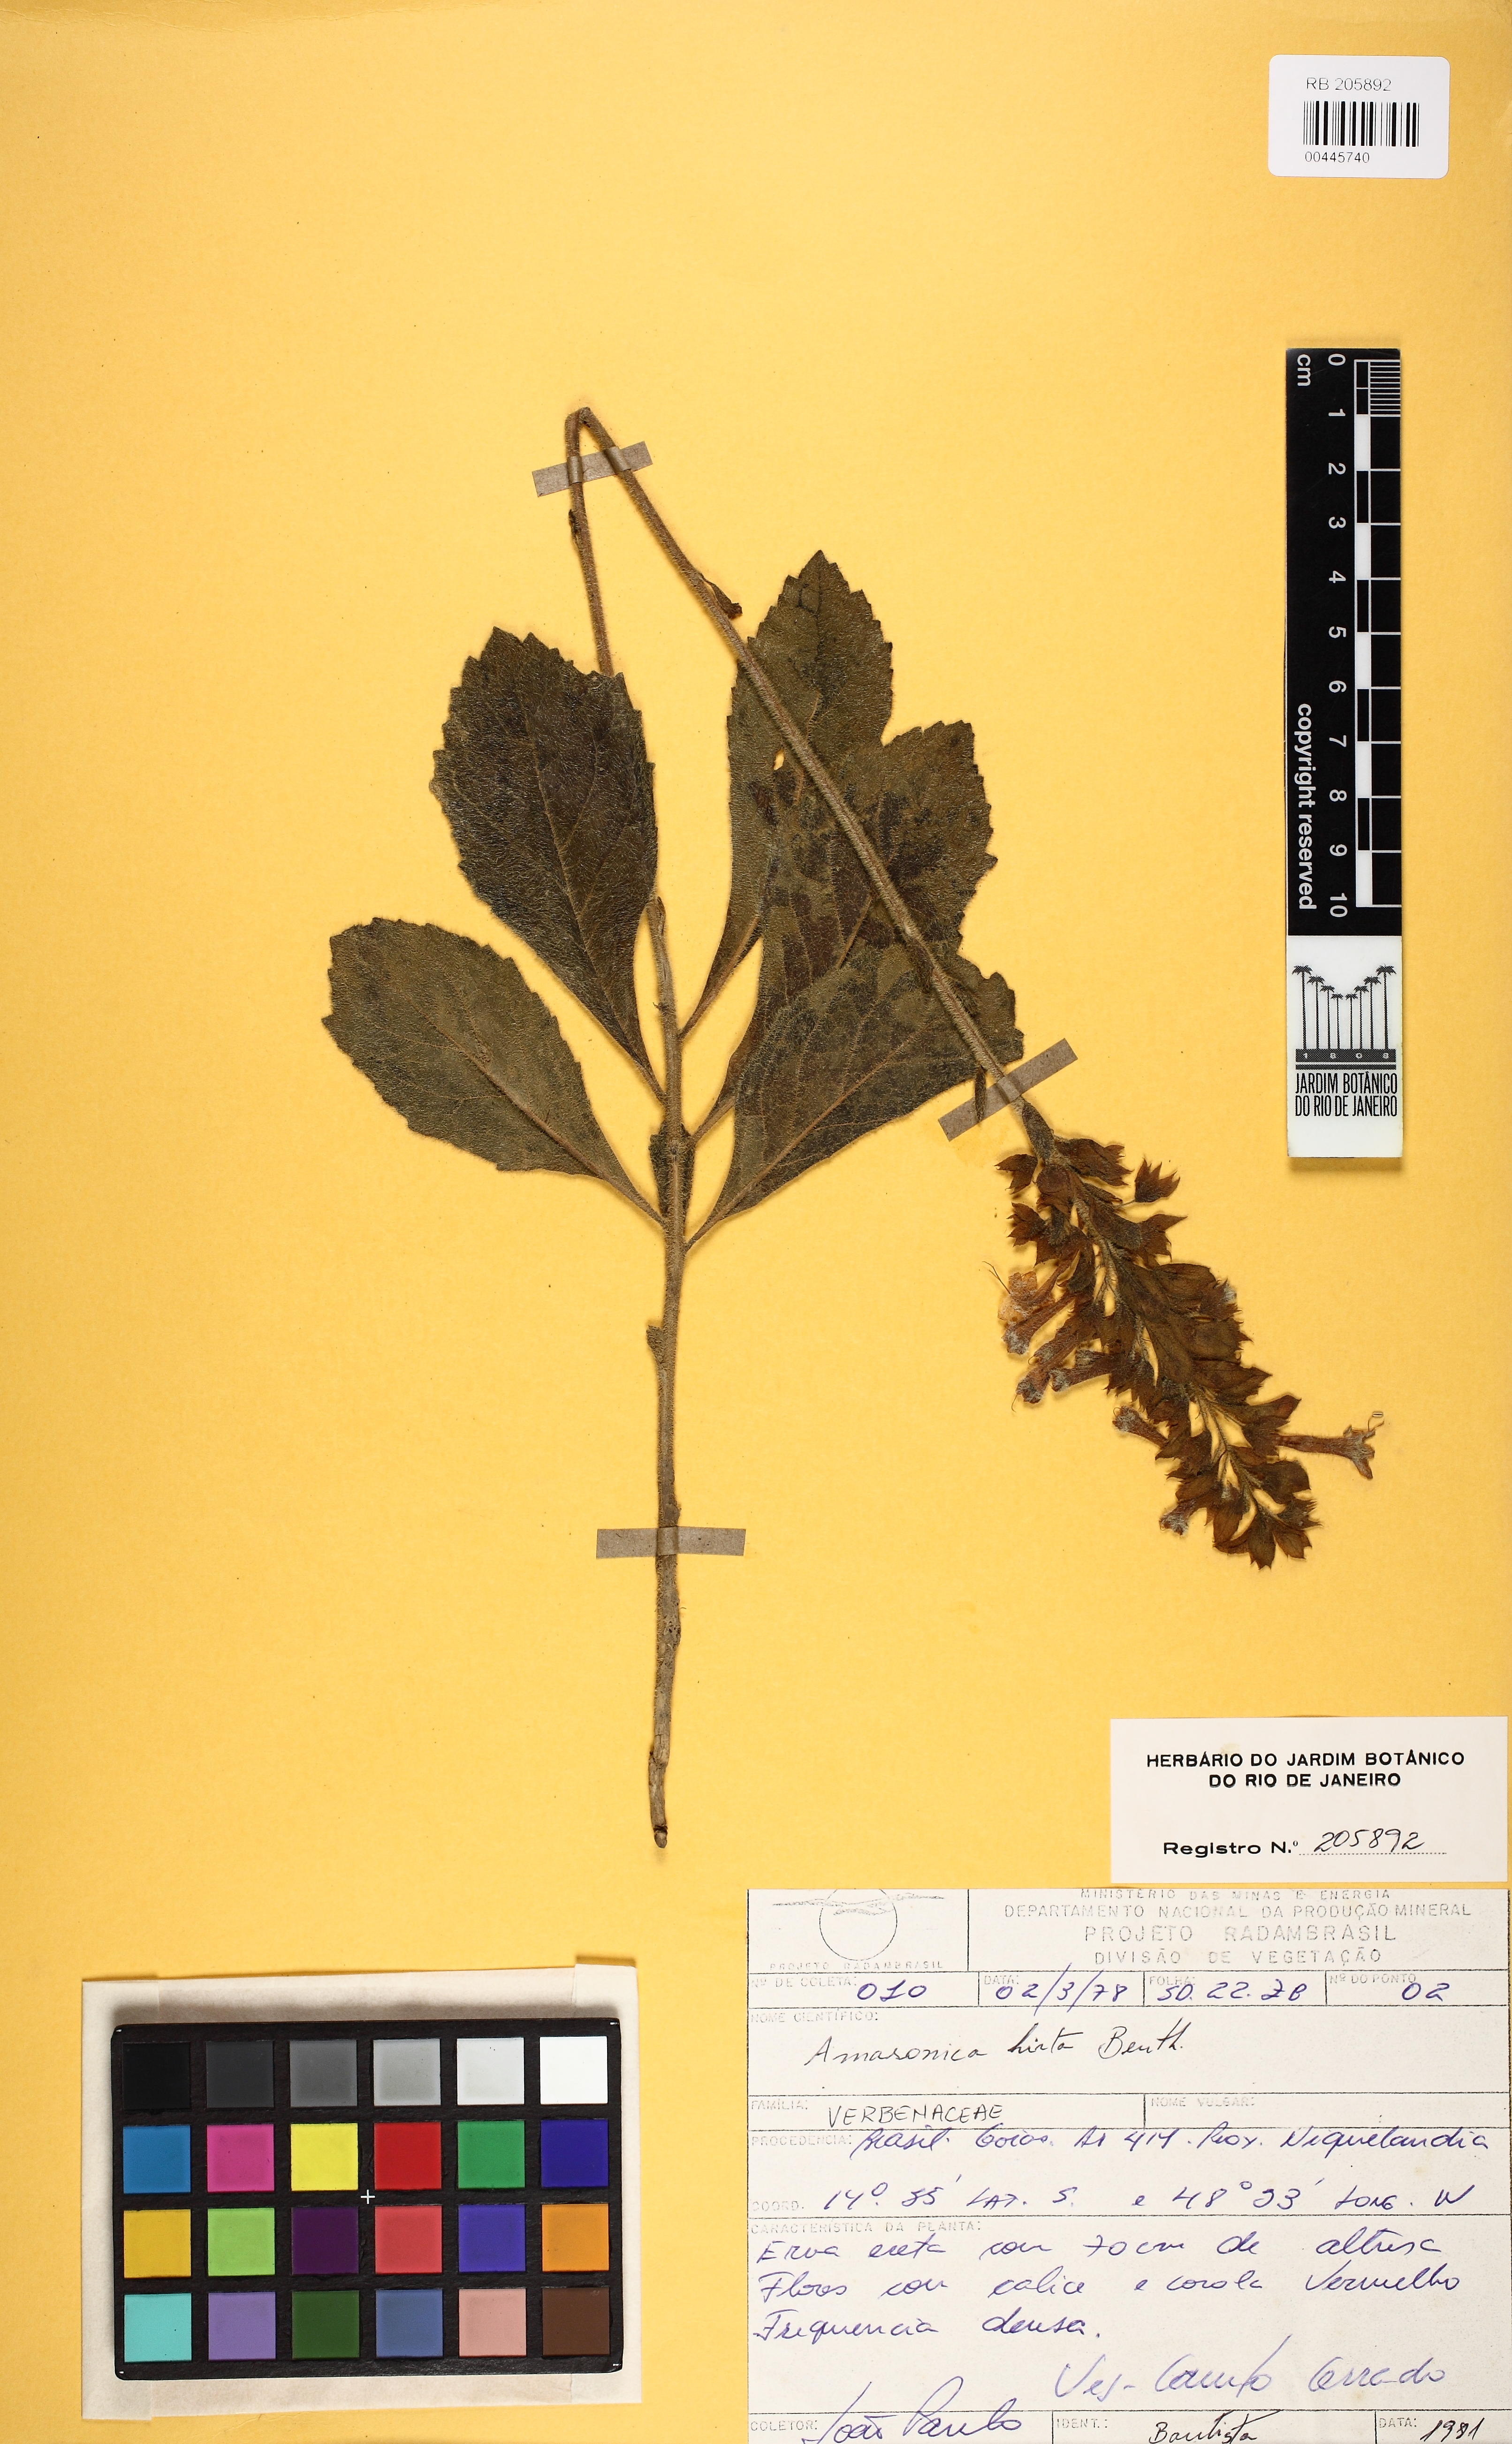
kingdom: Plantae
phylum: Tracheophyta
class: Magnoliopsida
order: Lamiales
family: Lamiaceae
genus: Amasonia
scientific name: Amasonia hirta
